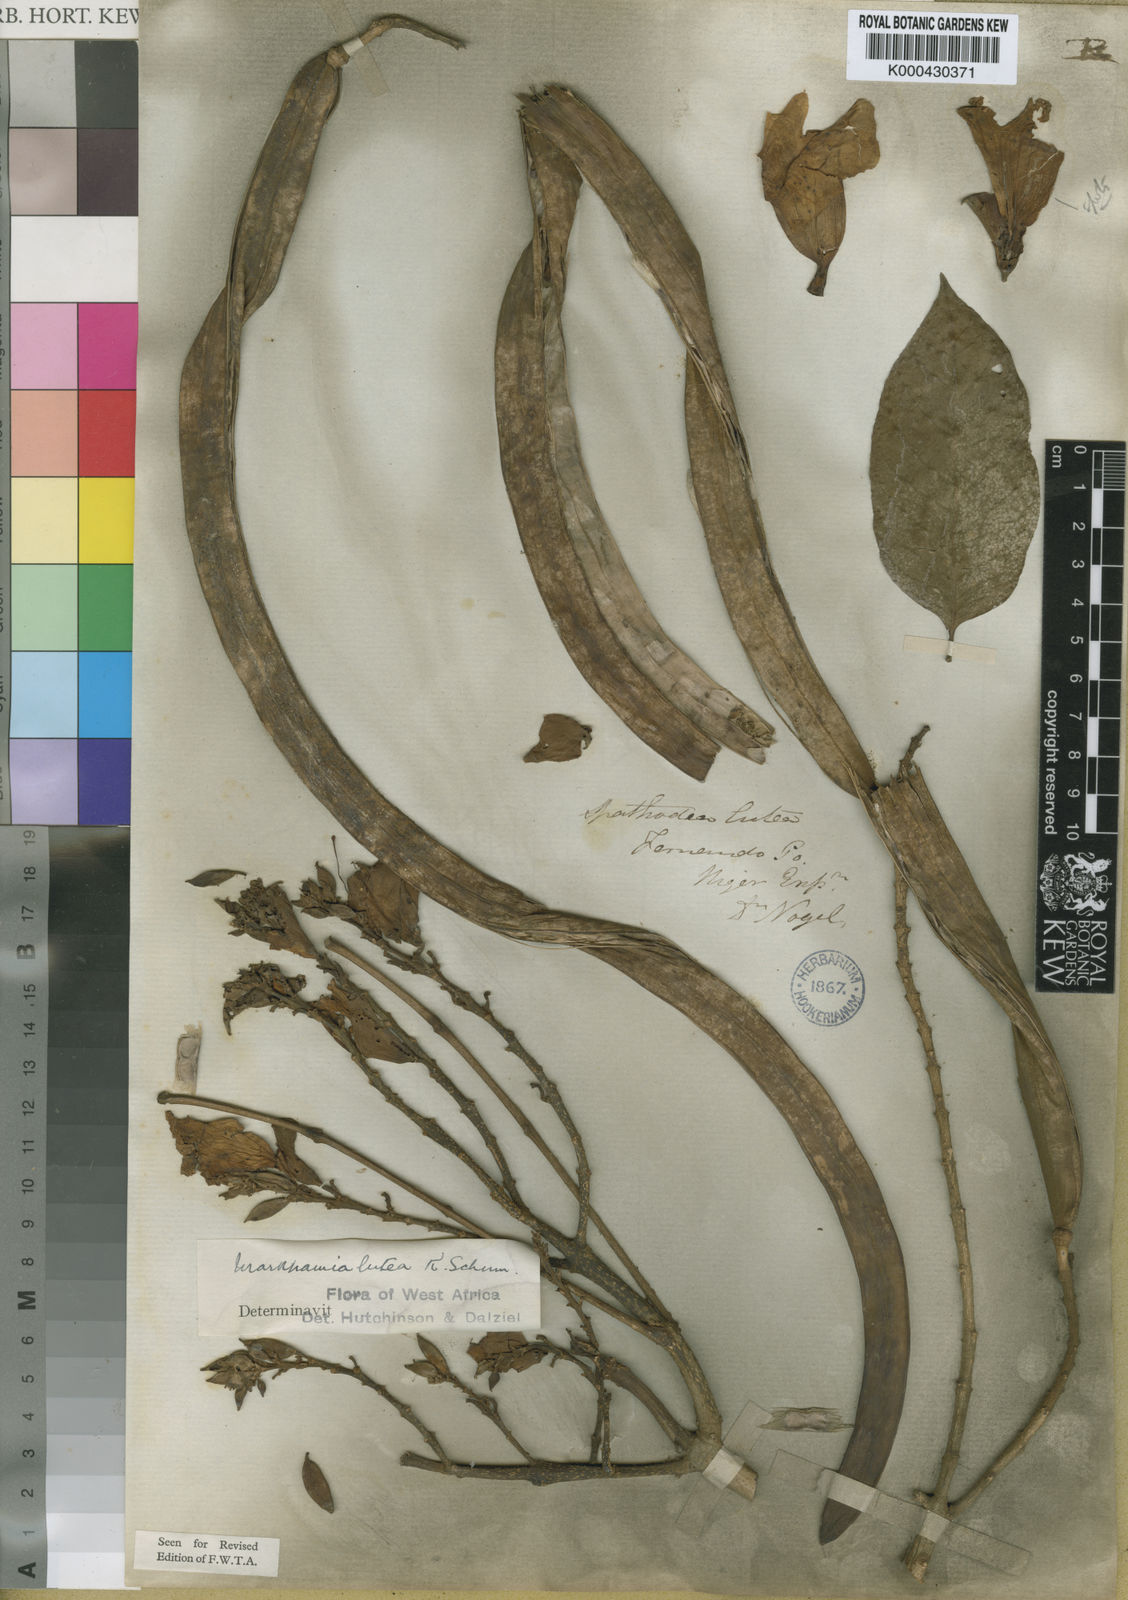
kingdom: Plantae
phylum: Tracheophyta
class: Magnoliopsida
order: Lamiales
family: Bignoniaceae
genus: Markhamia
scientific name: Markhamia lutea
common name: Siala
